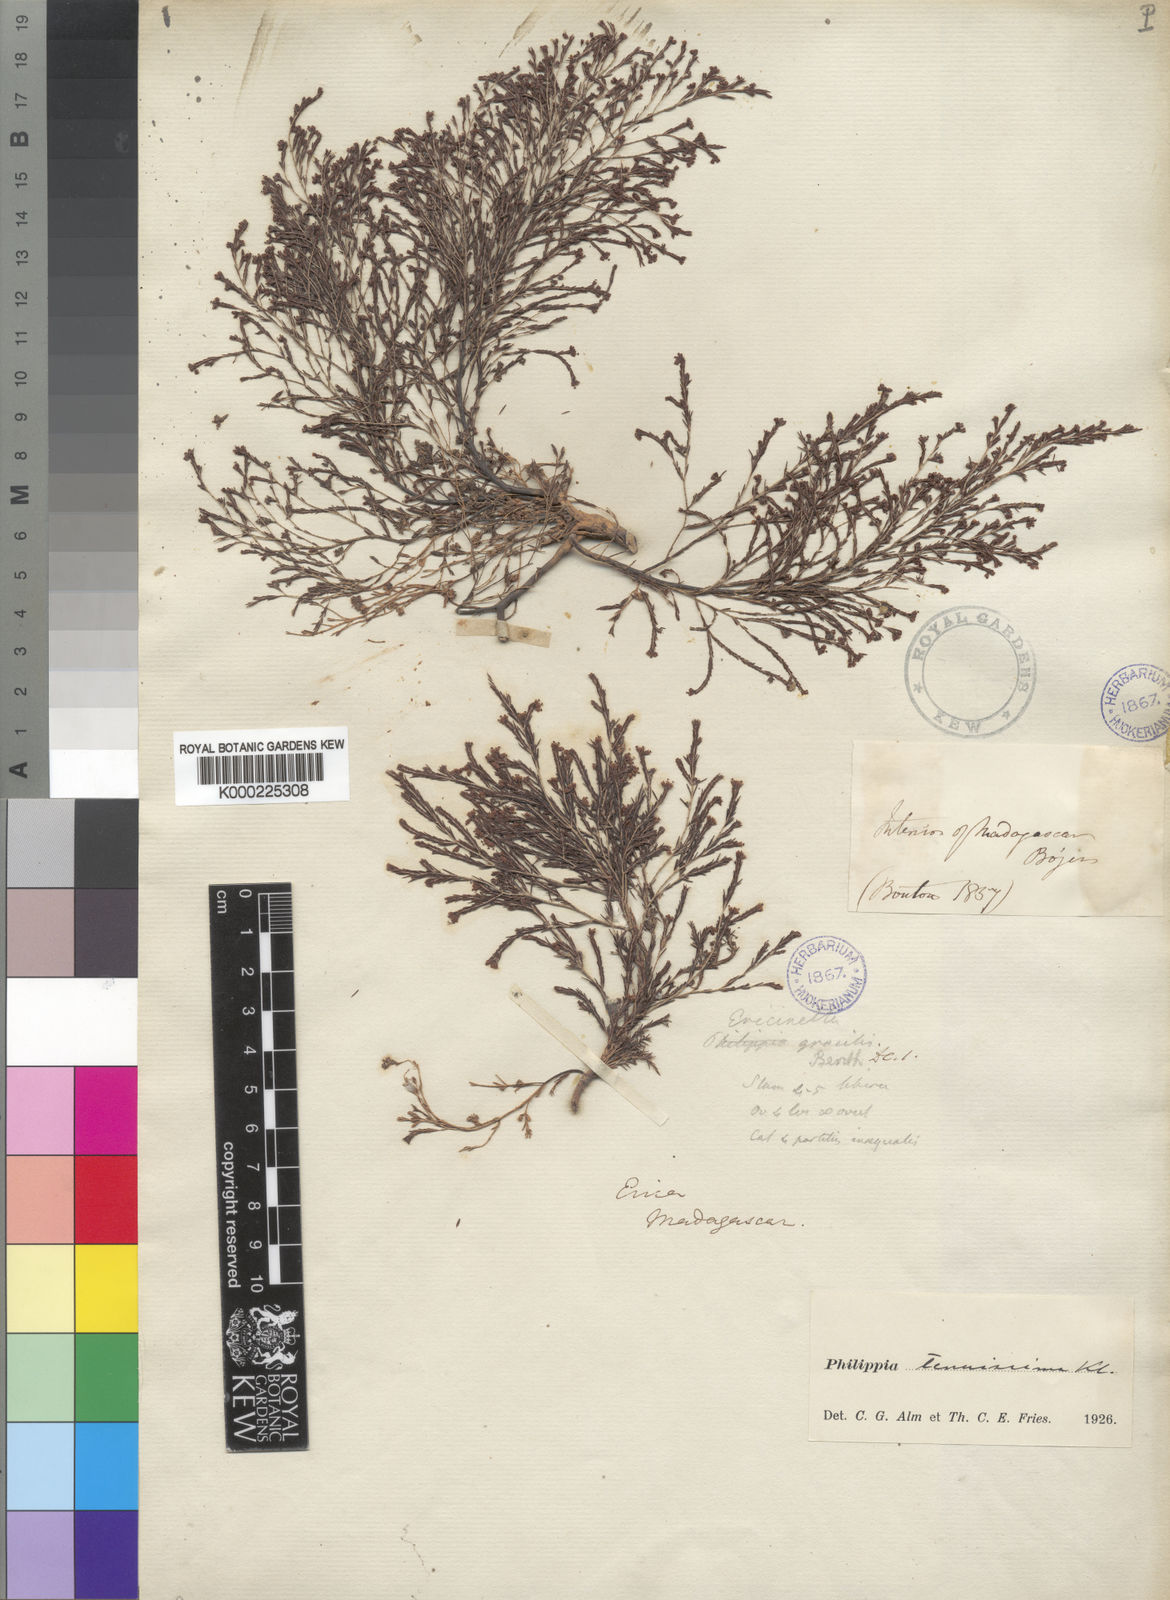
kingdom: Plantae
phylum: Tracheophyta
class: Magnoliopsida
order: Ericales
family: Ericaceae
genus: Erica
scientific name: Erica rakotozafyana
